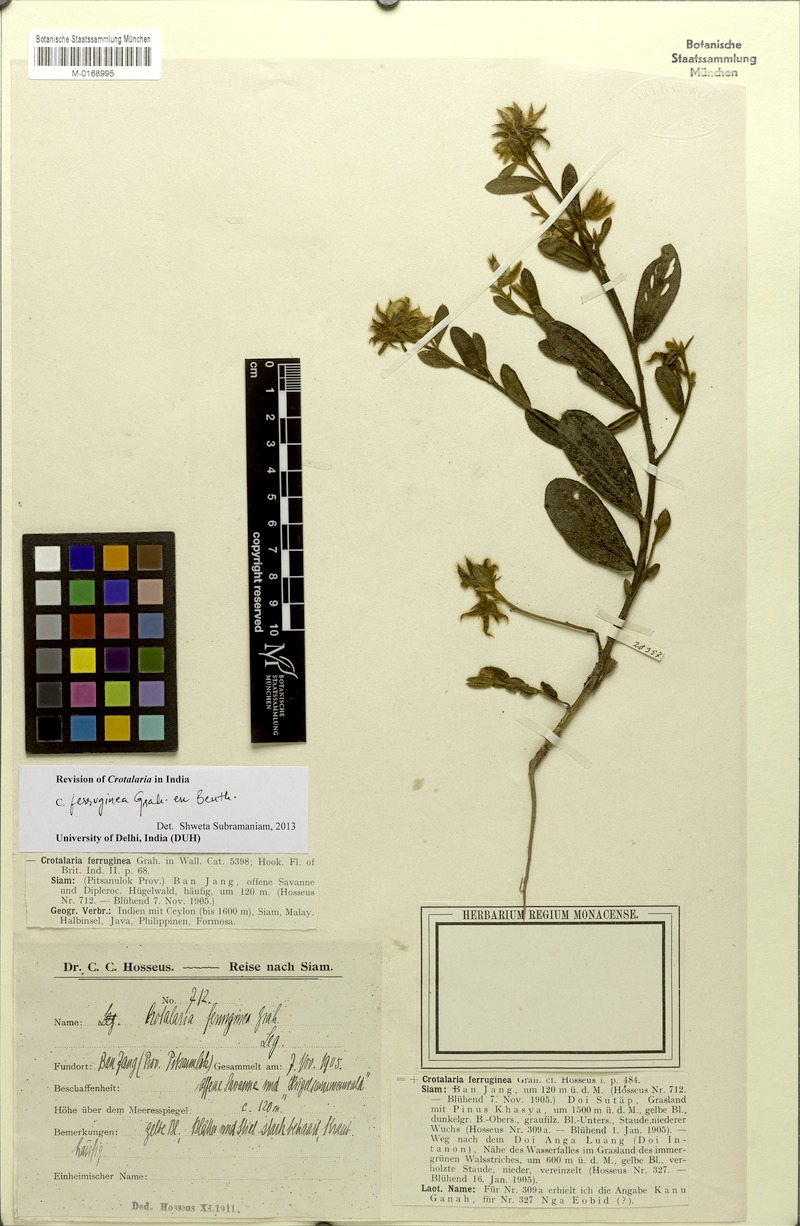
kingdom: Plantae
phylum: Tracheophyta
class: Magnoliopsida
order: Fabales
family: Fabaceae
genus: Crotalaria
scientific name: Crotalaria lejoloba
